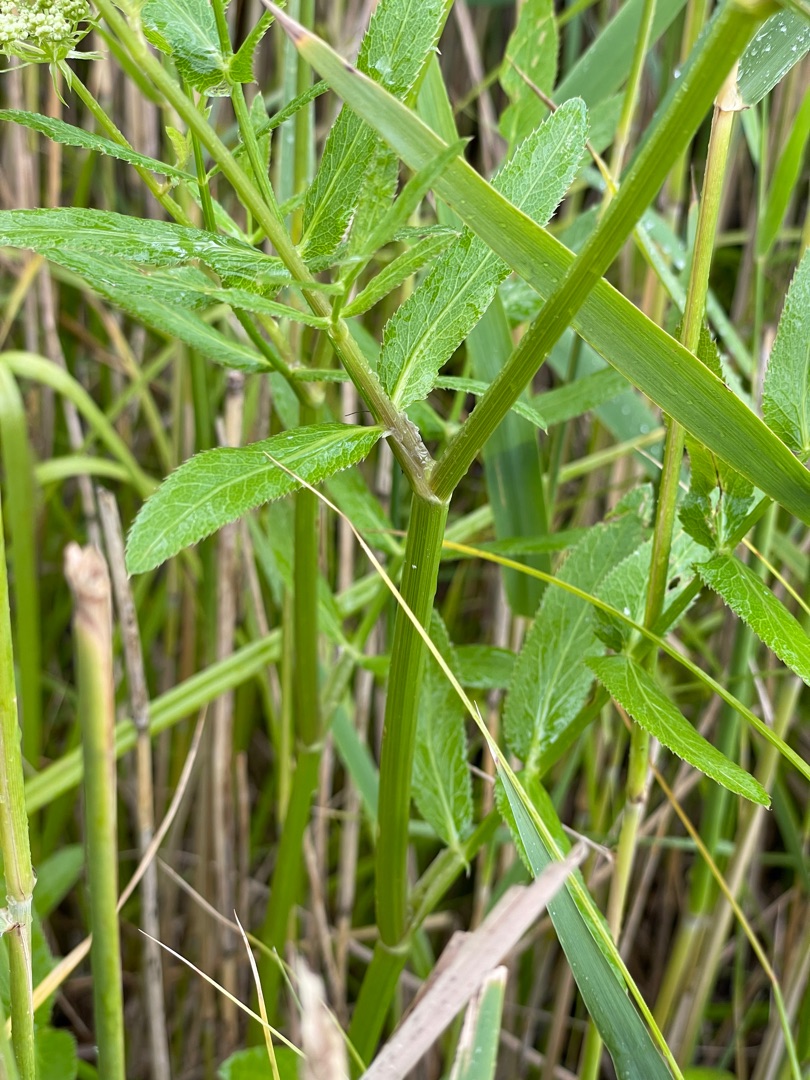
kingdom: Plantae
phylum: Tracheophyta
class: Magnoliopsida
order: Apiales
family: Apiaceae
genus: Sium
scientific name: Sium latifolium
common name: Bredbladet mærke
